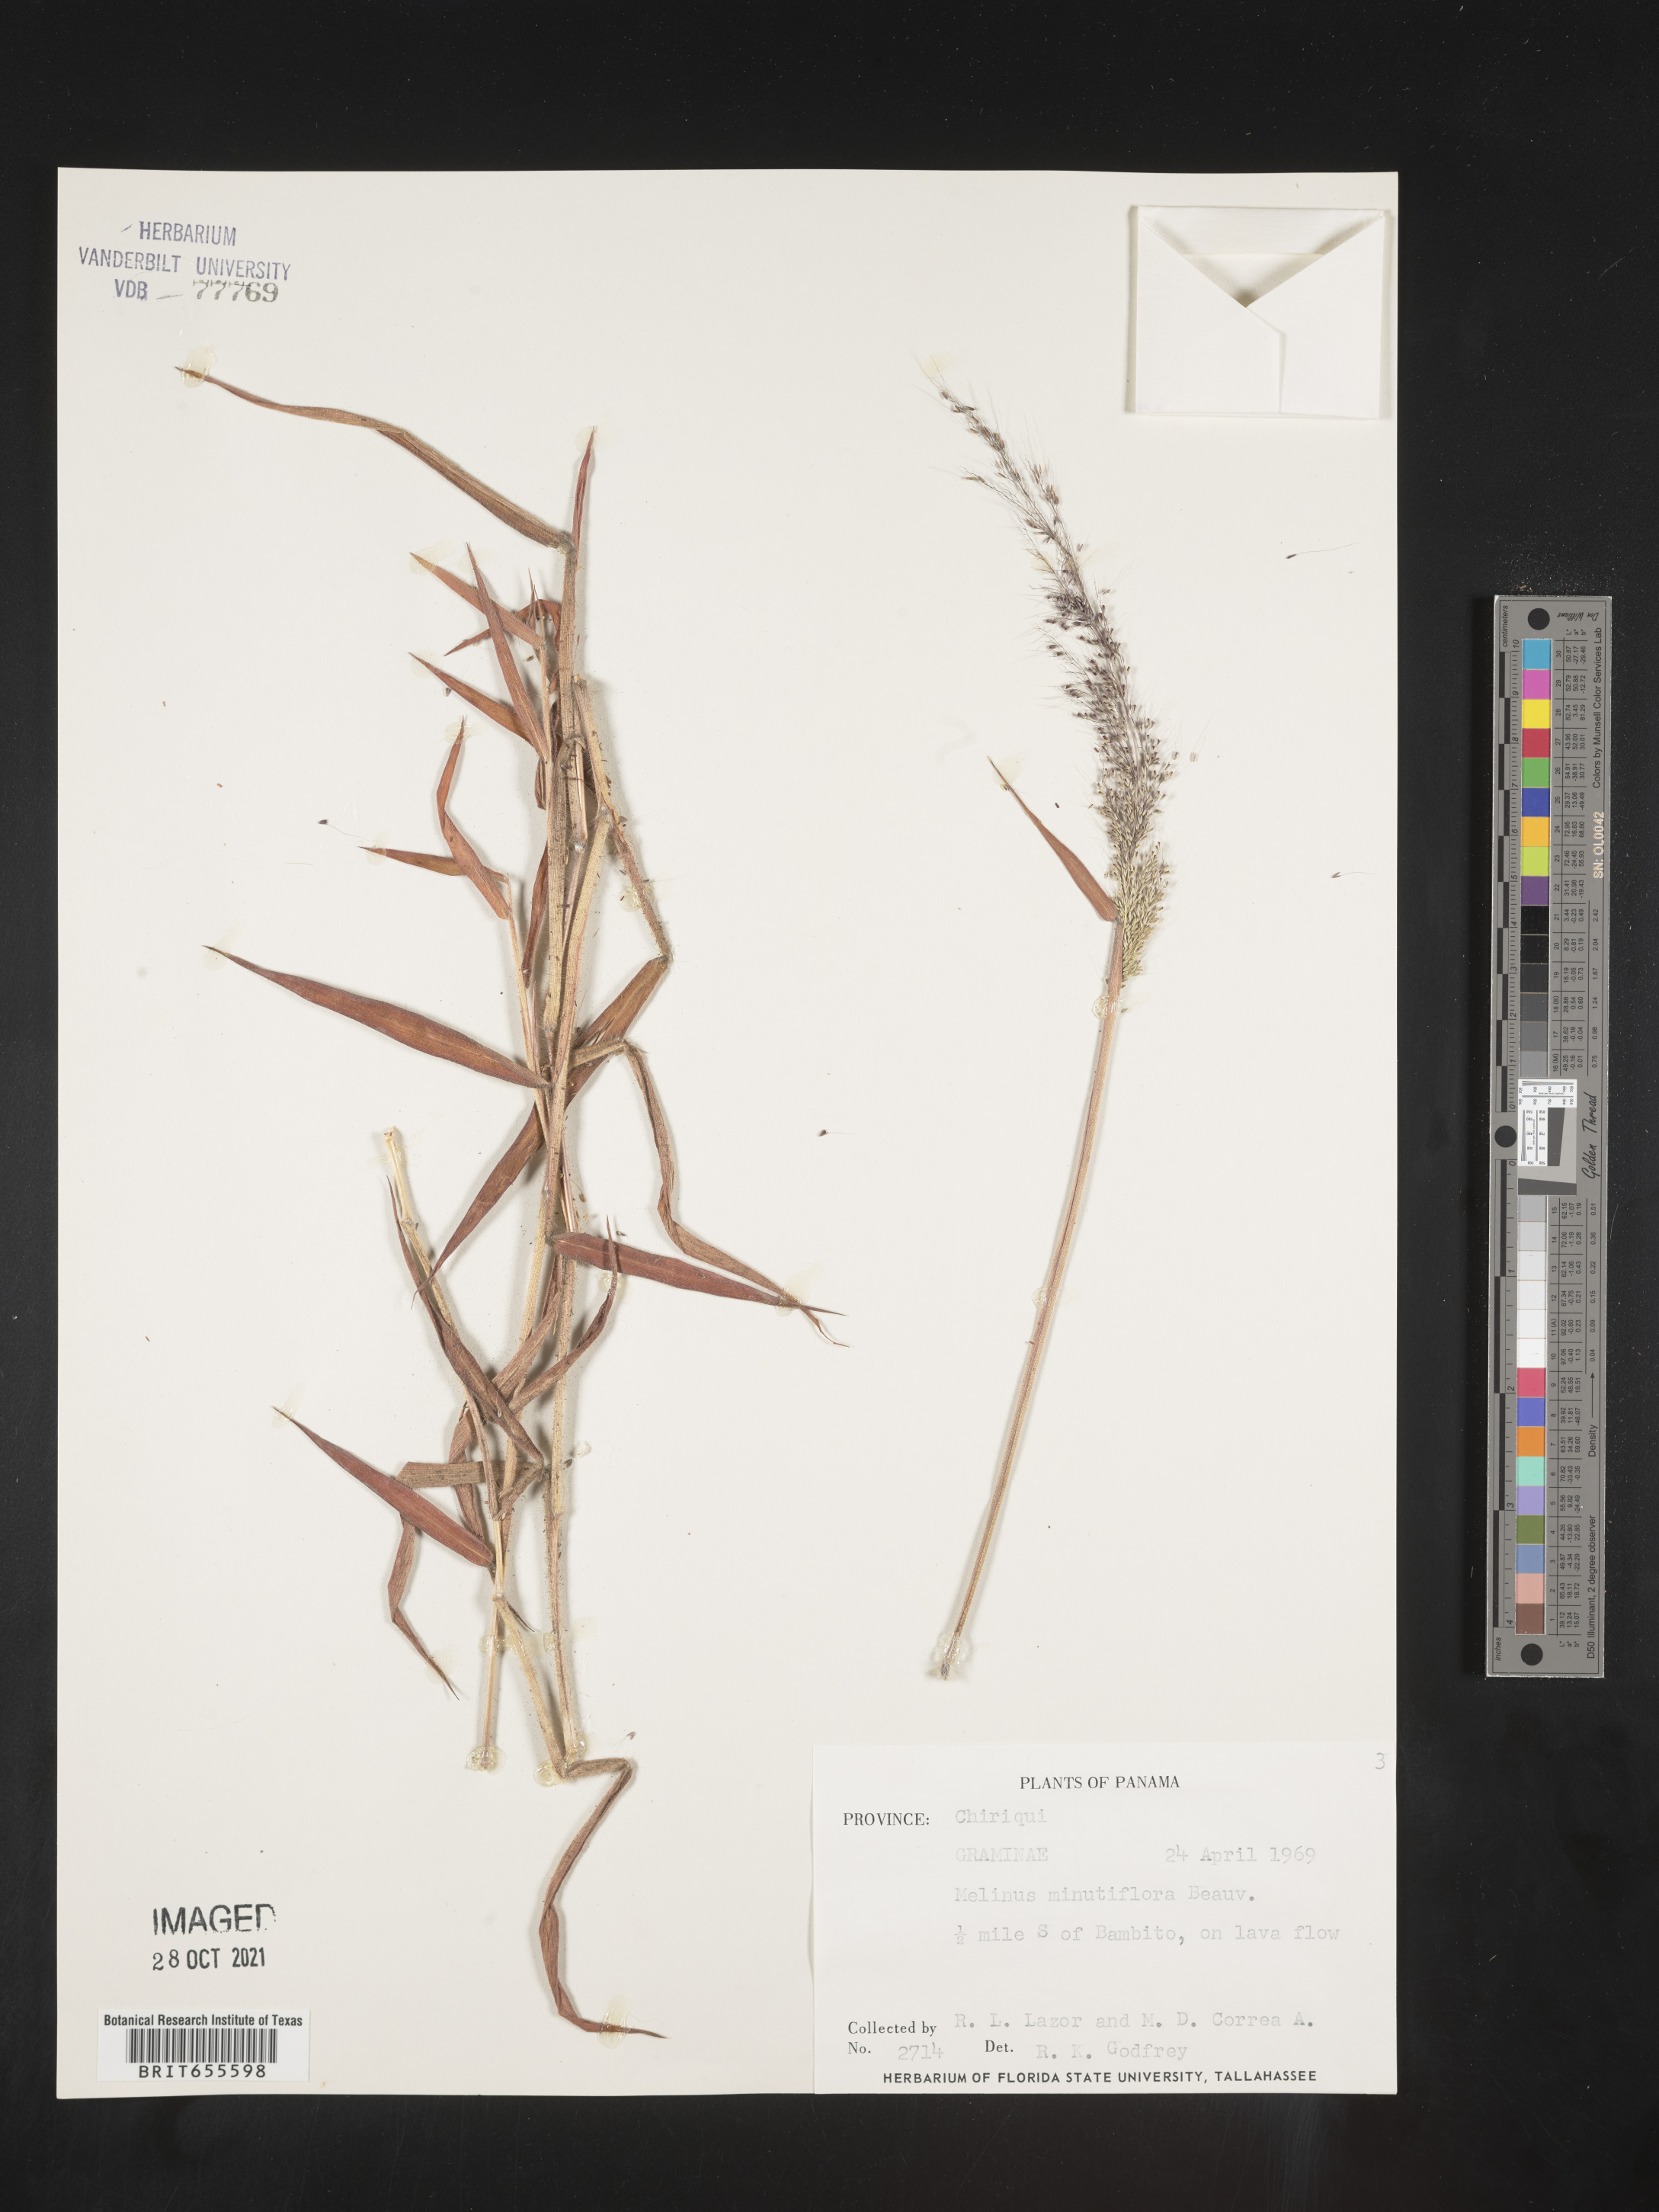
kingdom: Plantae
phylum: Tracheophyta
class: Liliopsida
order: Poales
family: Poaceae
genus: Melinis
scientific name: Melinis
